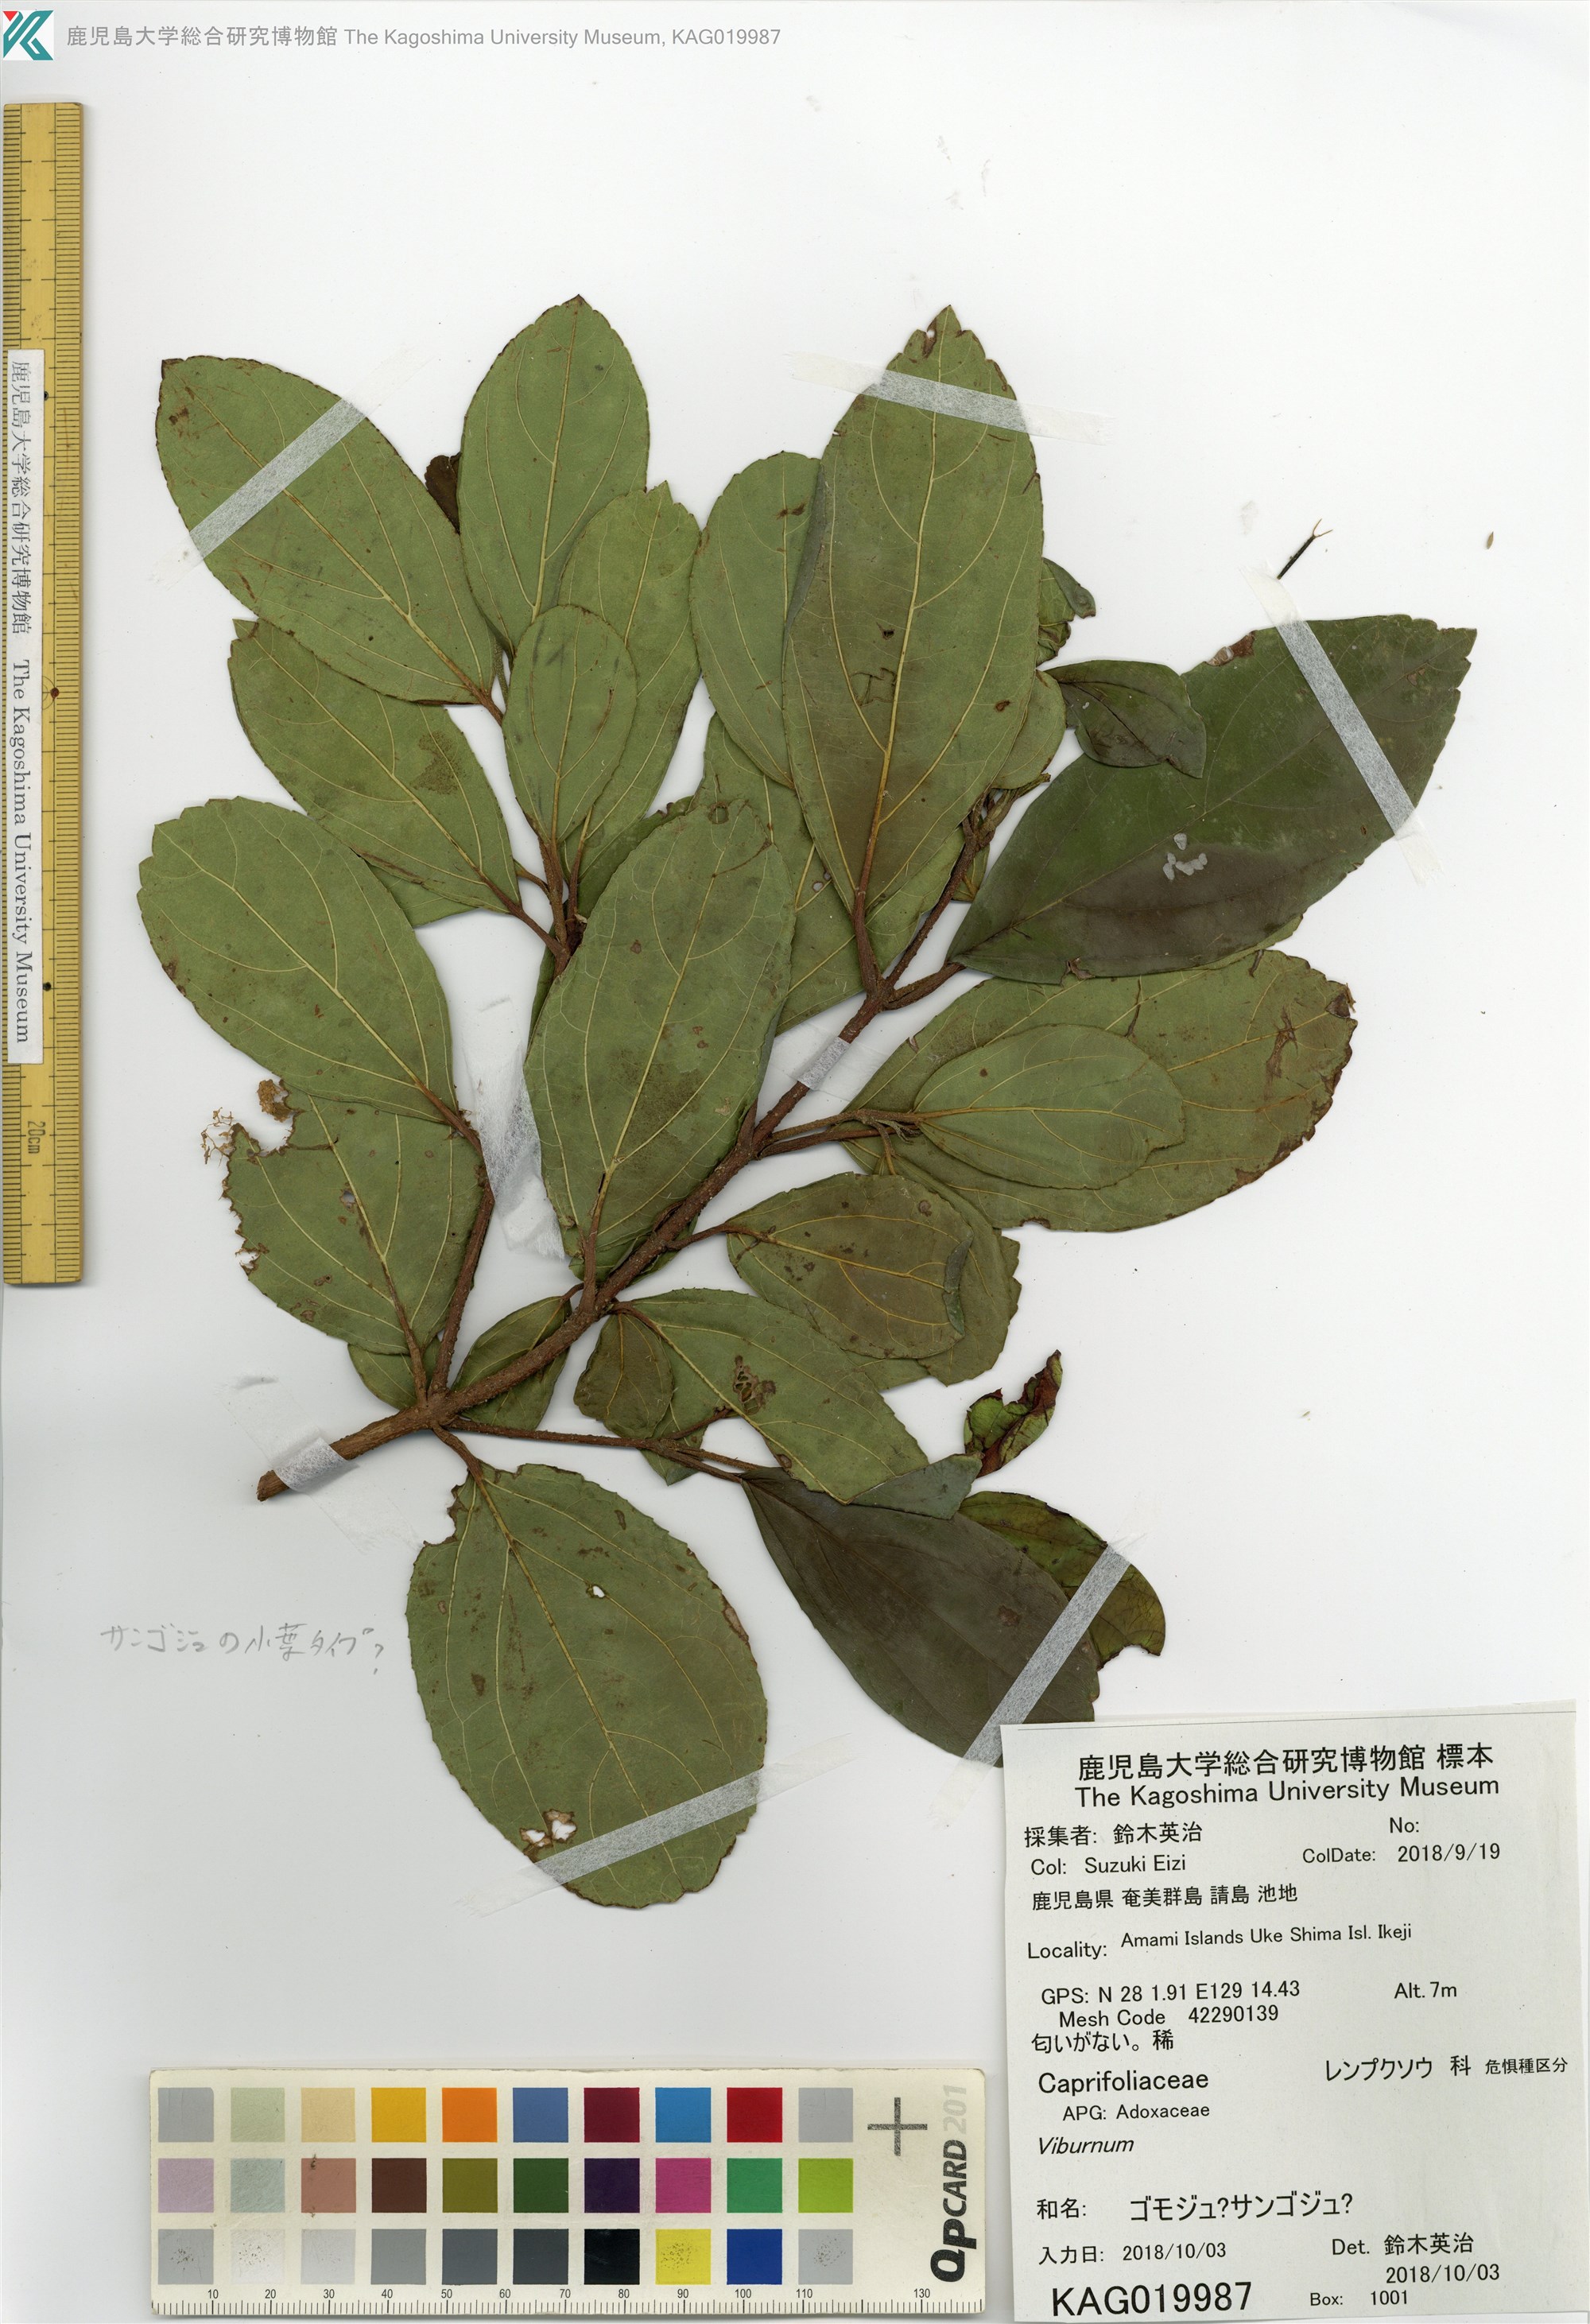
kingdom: Plantae
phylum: Tracheophyta
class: Magnoliopsida
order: Dipsacales
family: Viburnaceae
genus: Viburnum
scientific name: Viburnum suspensum
